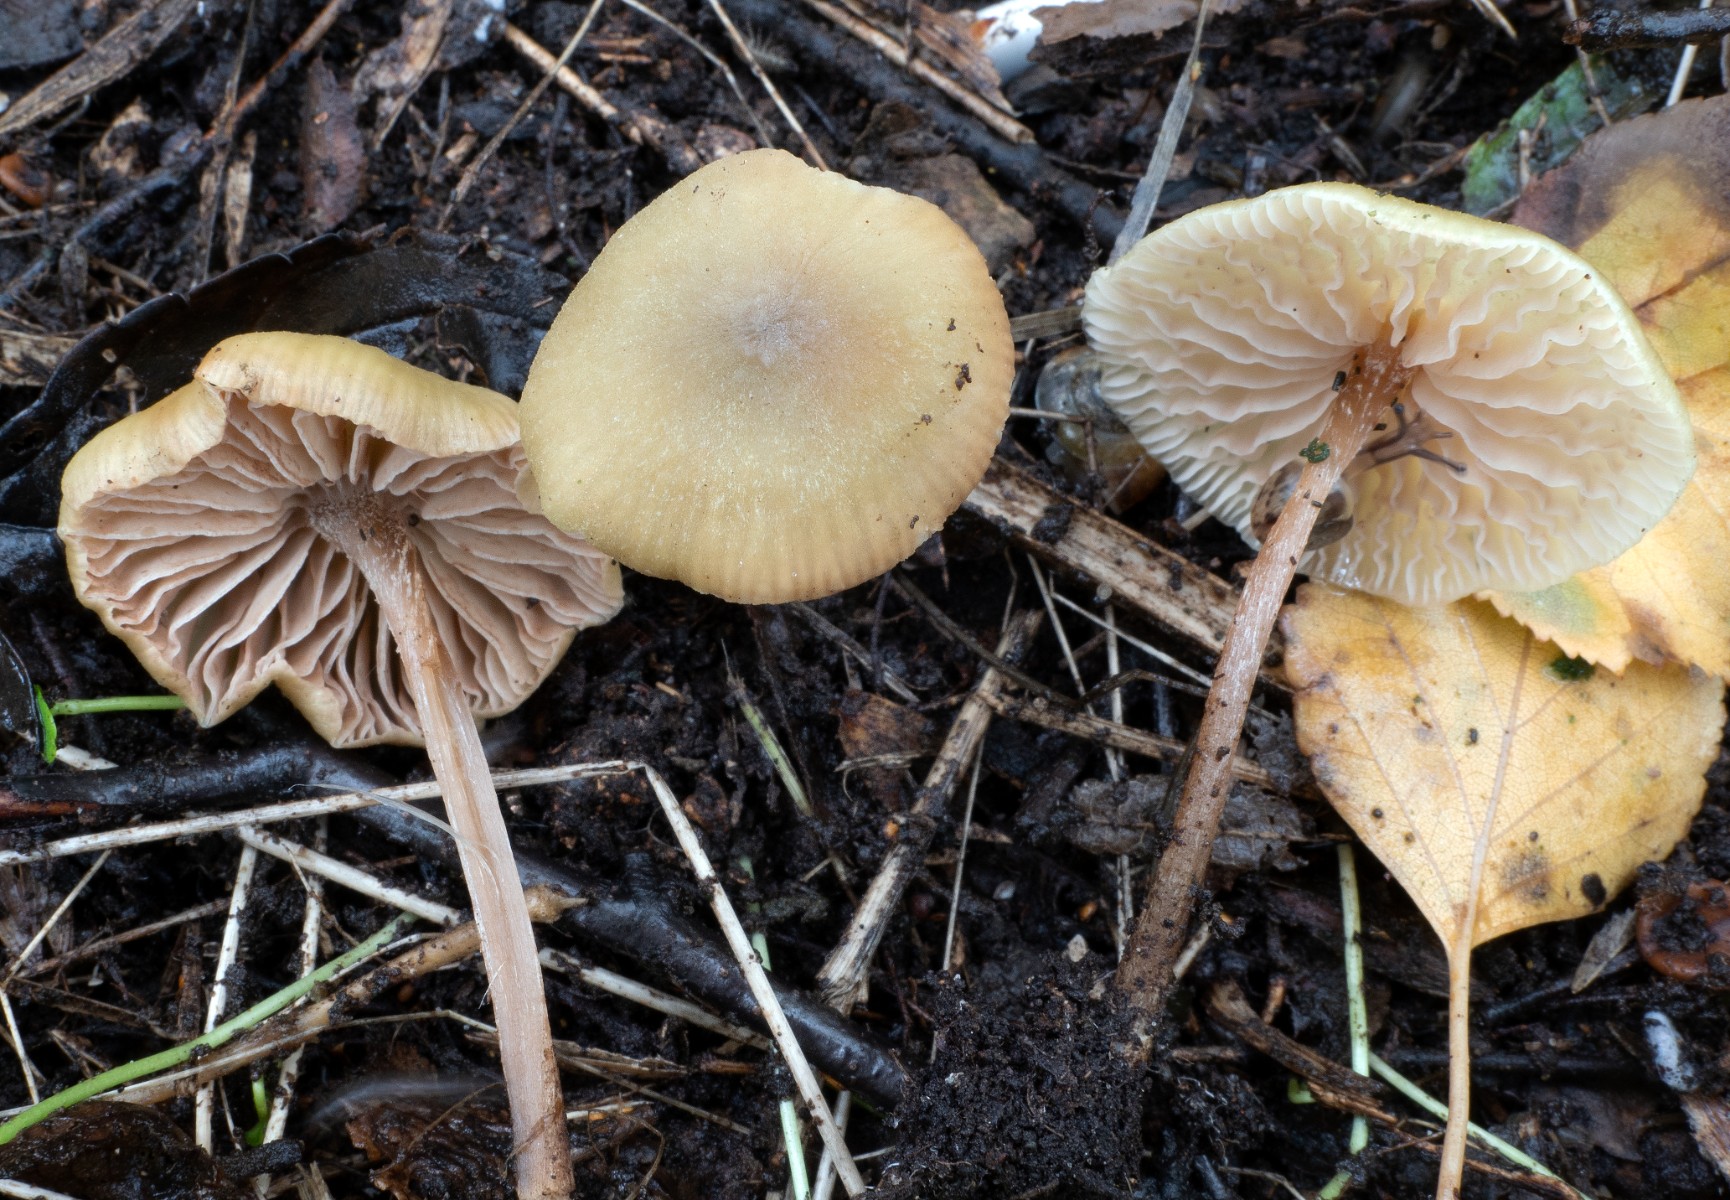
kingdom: Fungi
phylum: Basidiomycota
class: Agaricomycetes
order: Agaricales
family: Entolomataceae
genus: Entoloma
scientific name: Entoloma pleopodium
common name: duftende rødblad
